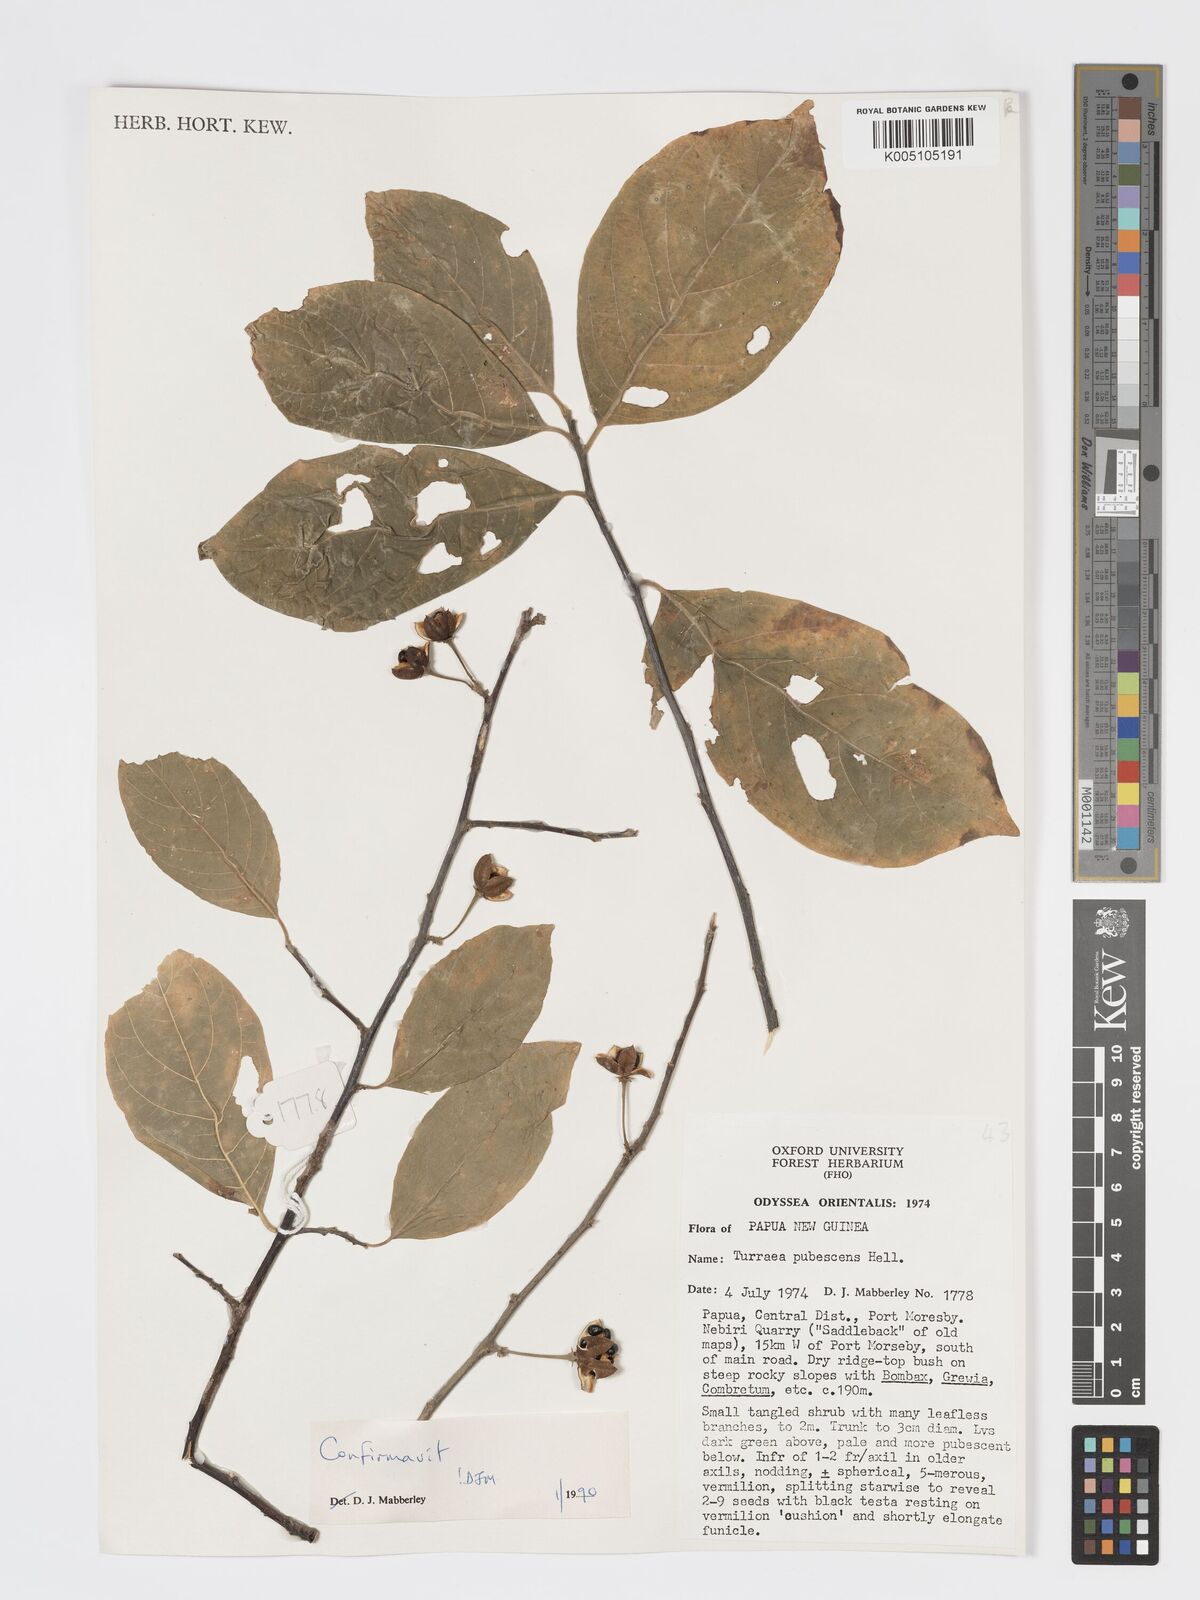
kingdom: Plantae
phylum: Tracheophyta
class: Magnoliopsida
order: Sapindales
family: Meliaceae
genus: Turraea
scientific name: Turraea
